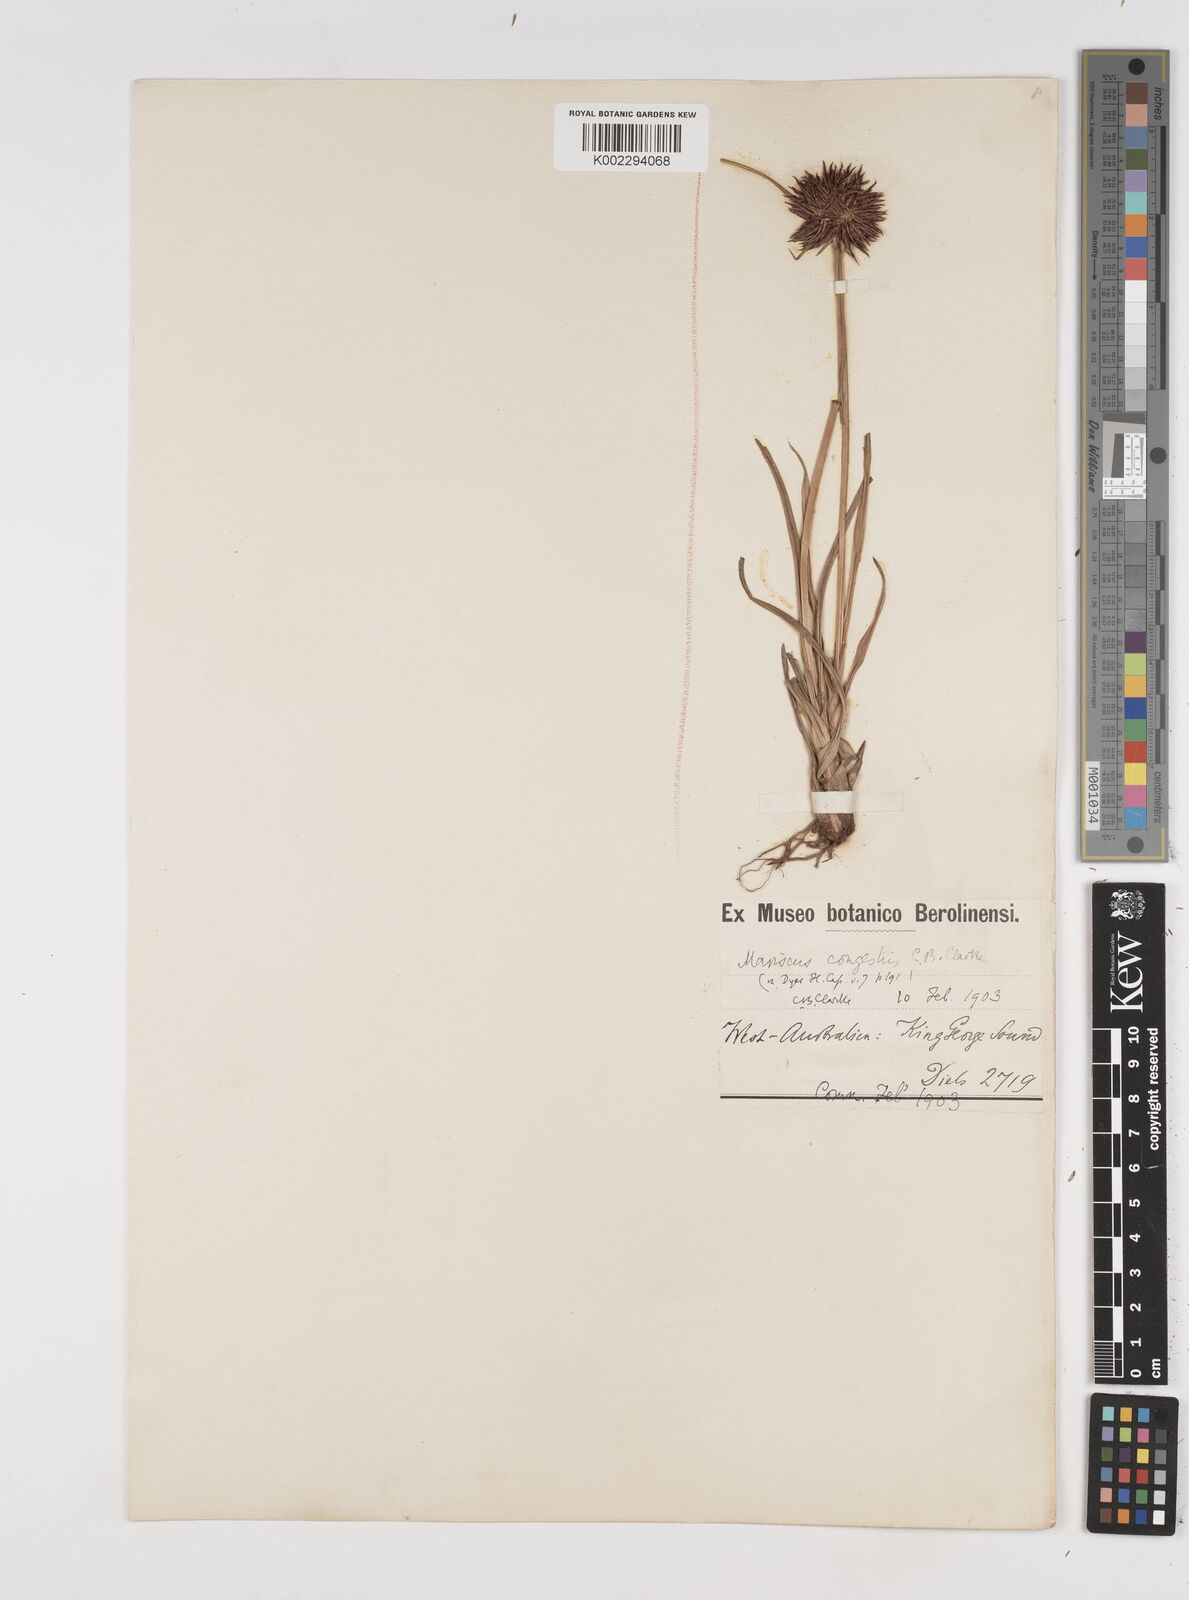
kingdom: Plantae
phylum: Tracheophyta
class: Liliopsida
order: Poales
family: Cyperaceae
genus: Cyperus
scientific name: Cyperus congestus
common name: Dense flat sedge
